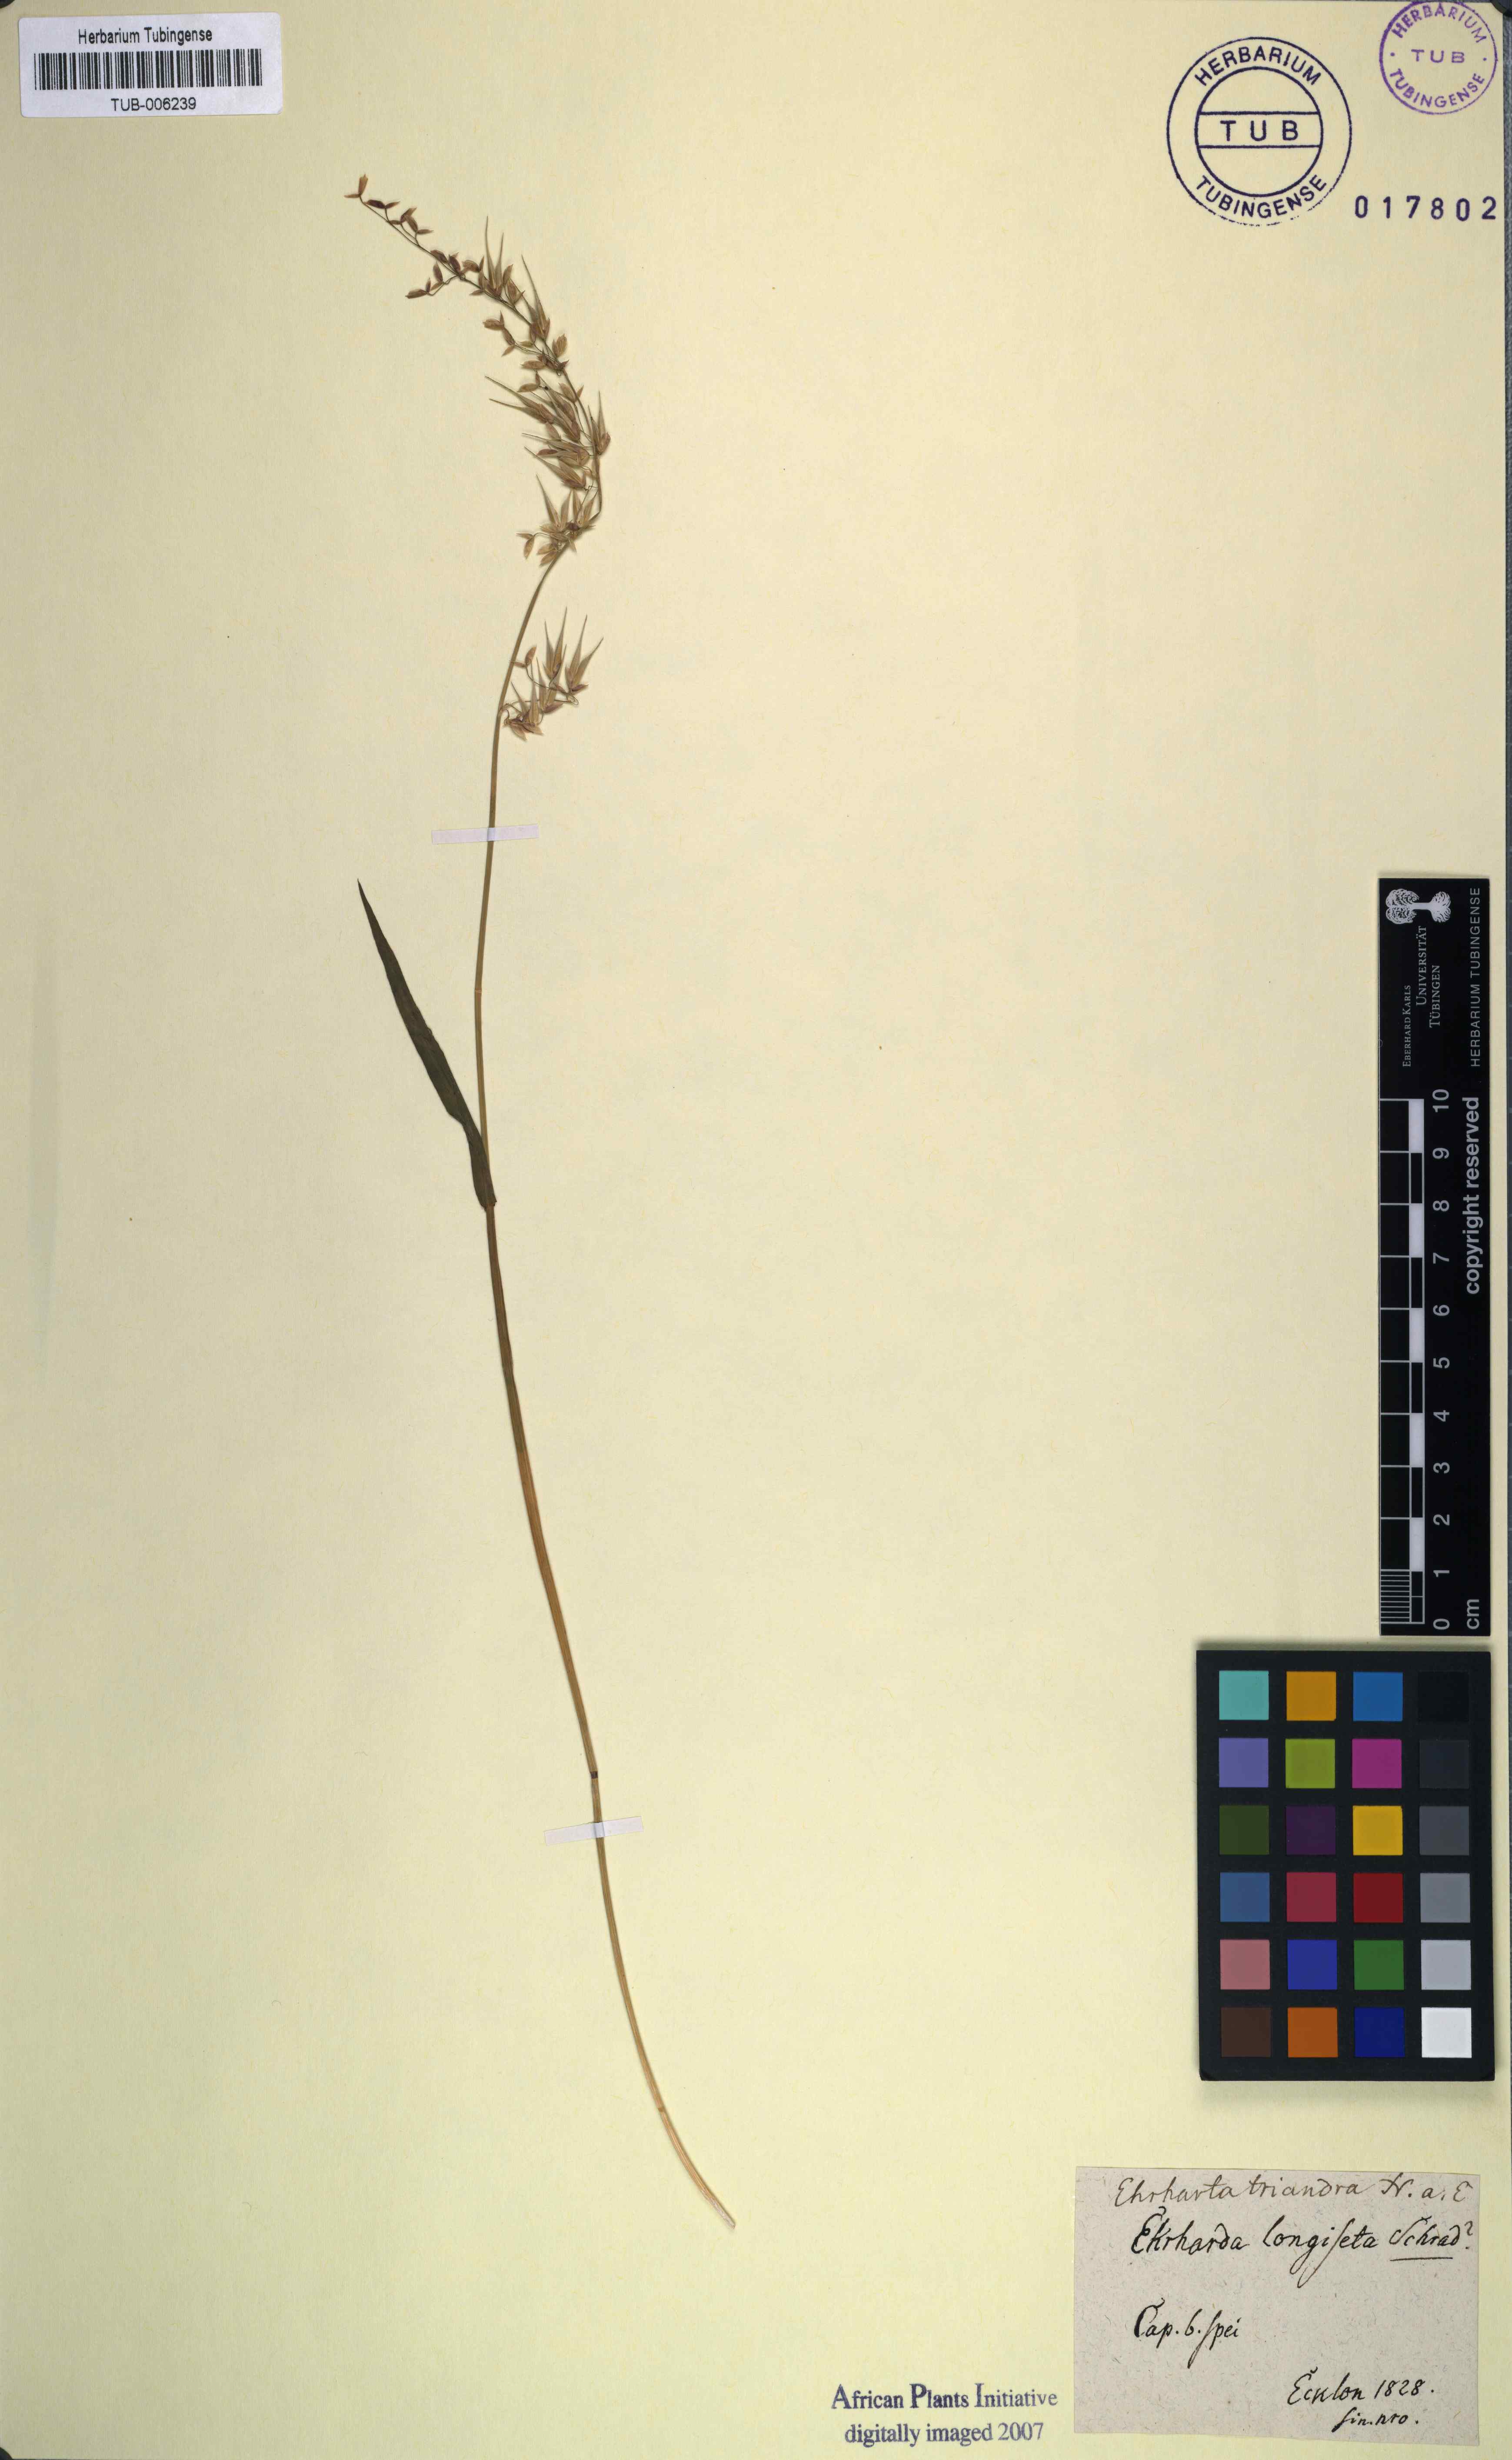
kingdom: Plantae
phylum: Tracheophyta
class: Liliopsida
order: Poales
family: Poaceae
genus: Ehrharta
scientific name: Ehrharta triandra
